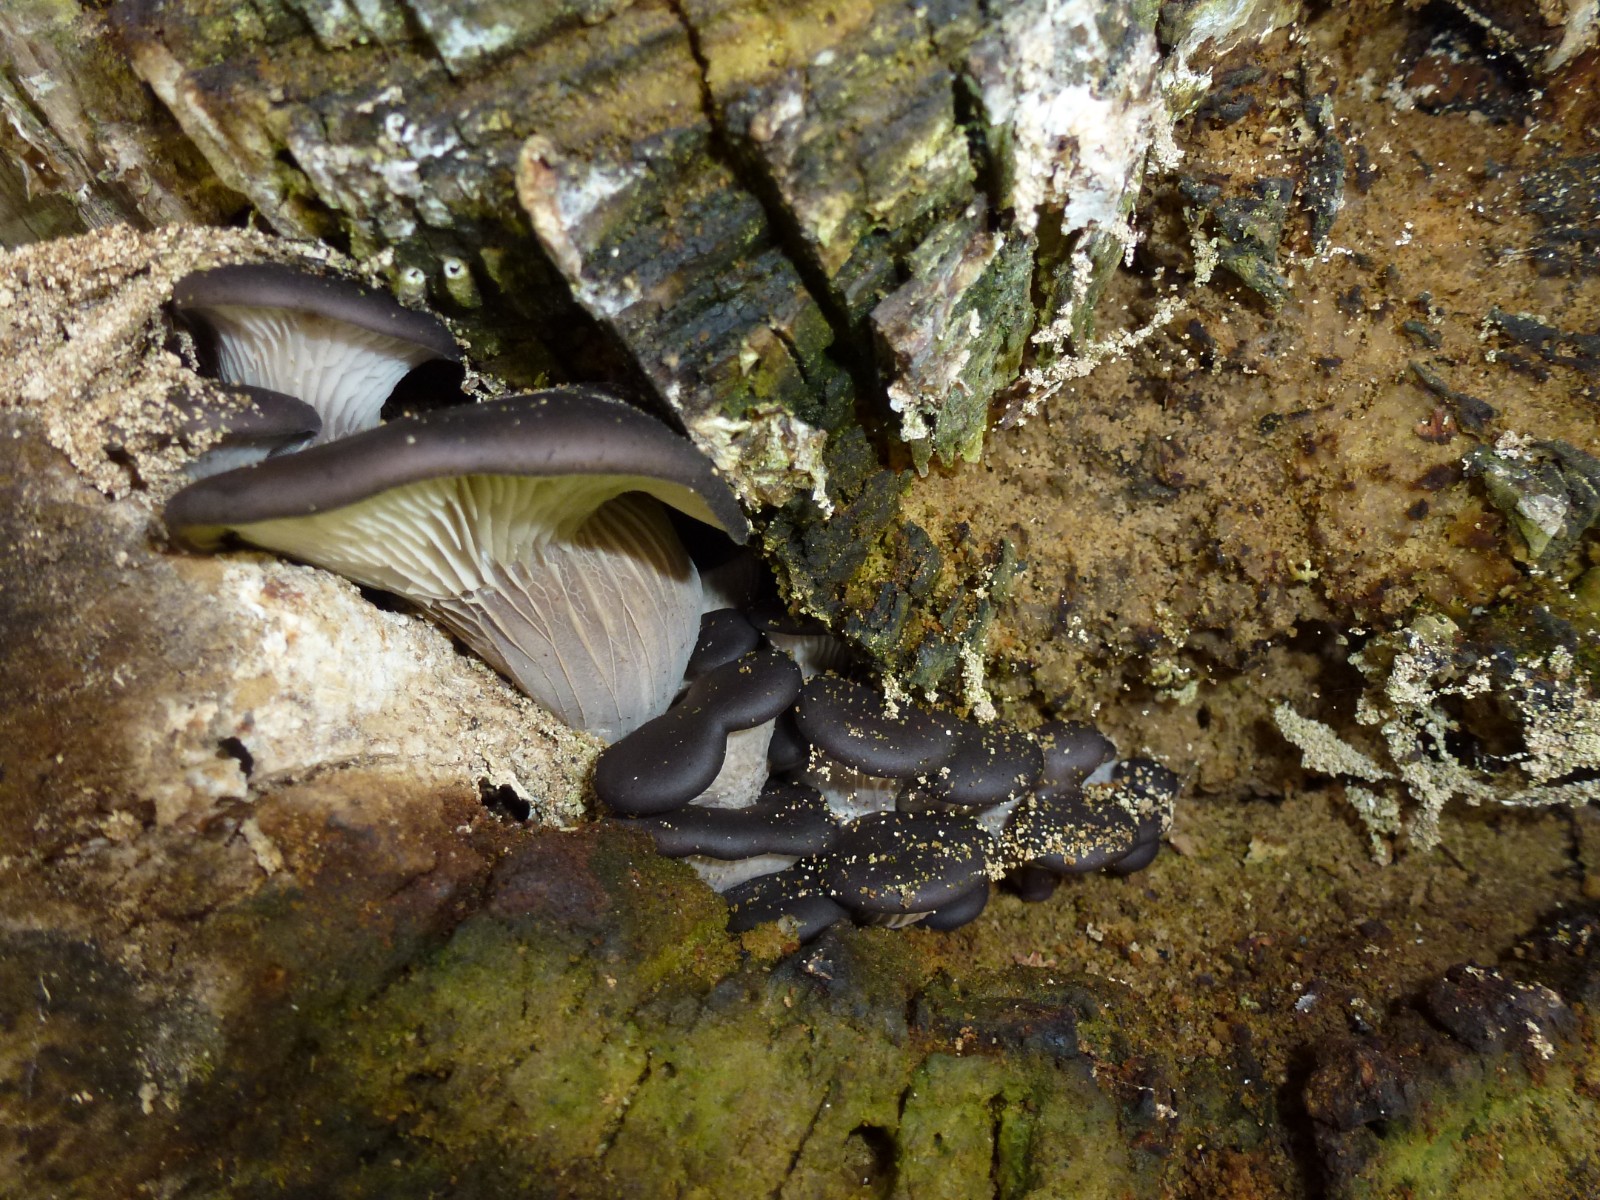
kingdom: Fungi
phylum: Basidiomycota
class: Agaricomycetes
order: Agaricales
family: Pleurotaceae
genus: Pleurotus
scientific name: Pleurotus ostreatus
